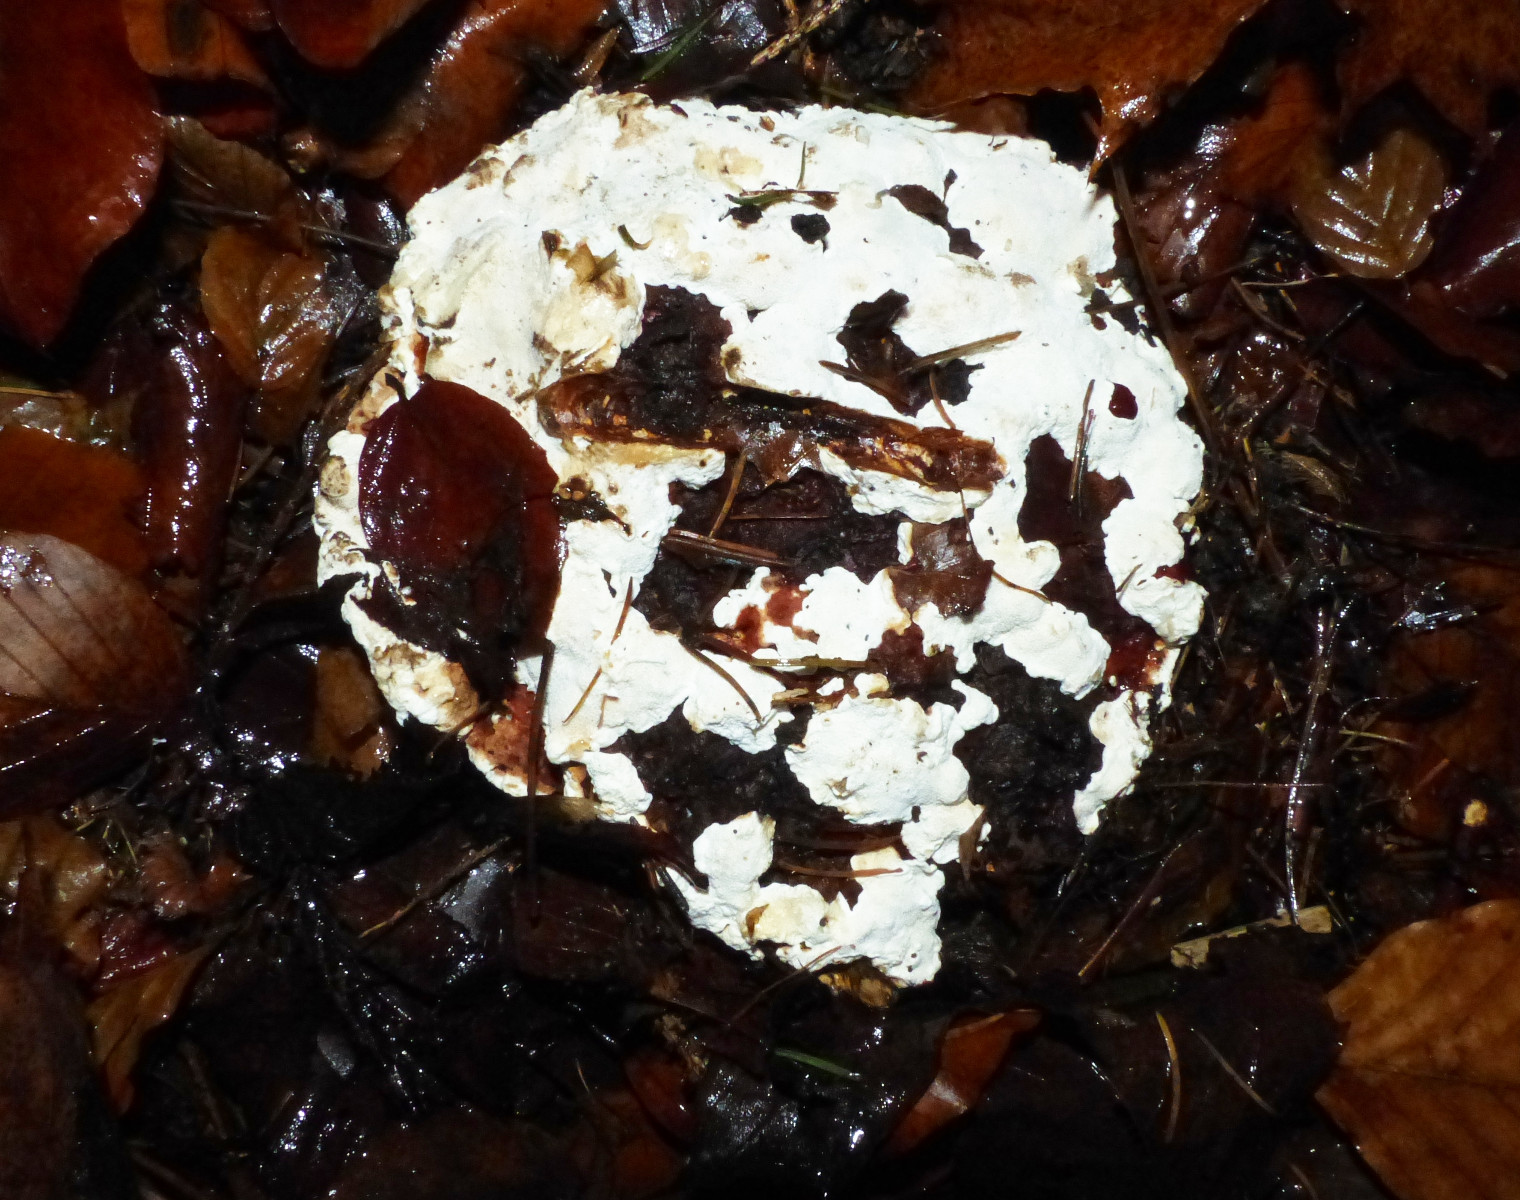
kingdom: Fungi
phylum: Basidiomycota
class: Agaricomycetes
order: Russulales
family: Bondarzewiaceae
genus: Heterobasidion
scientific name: Heterobasidion annosum
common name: almindelig rodfordærver
